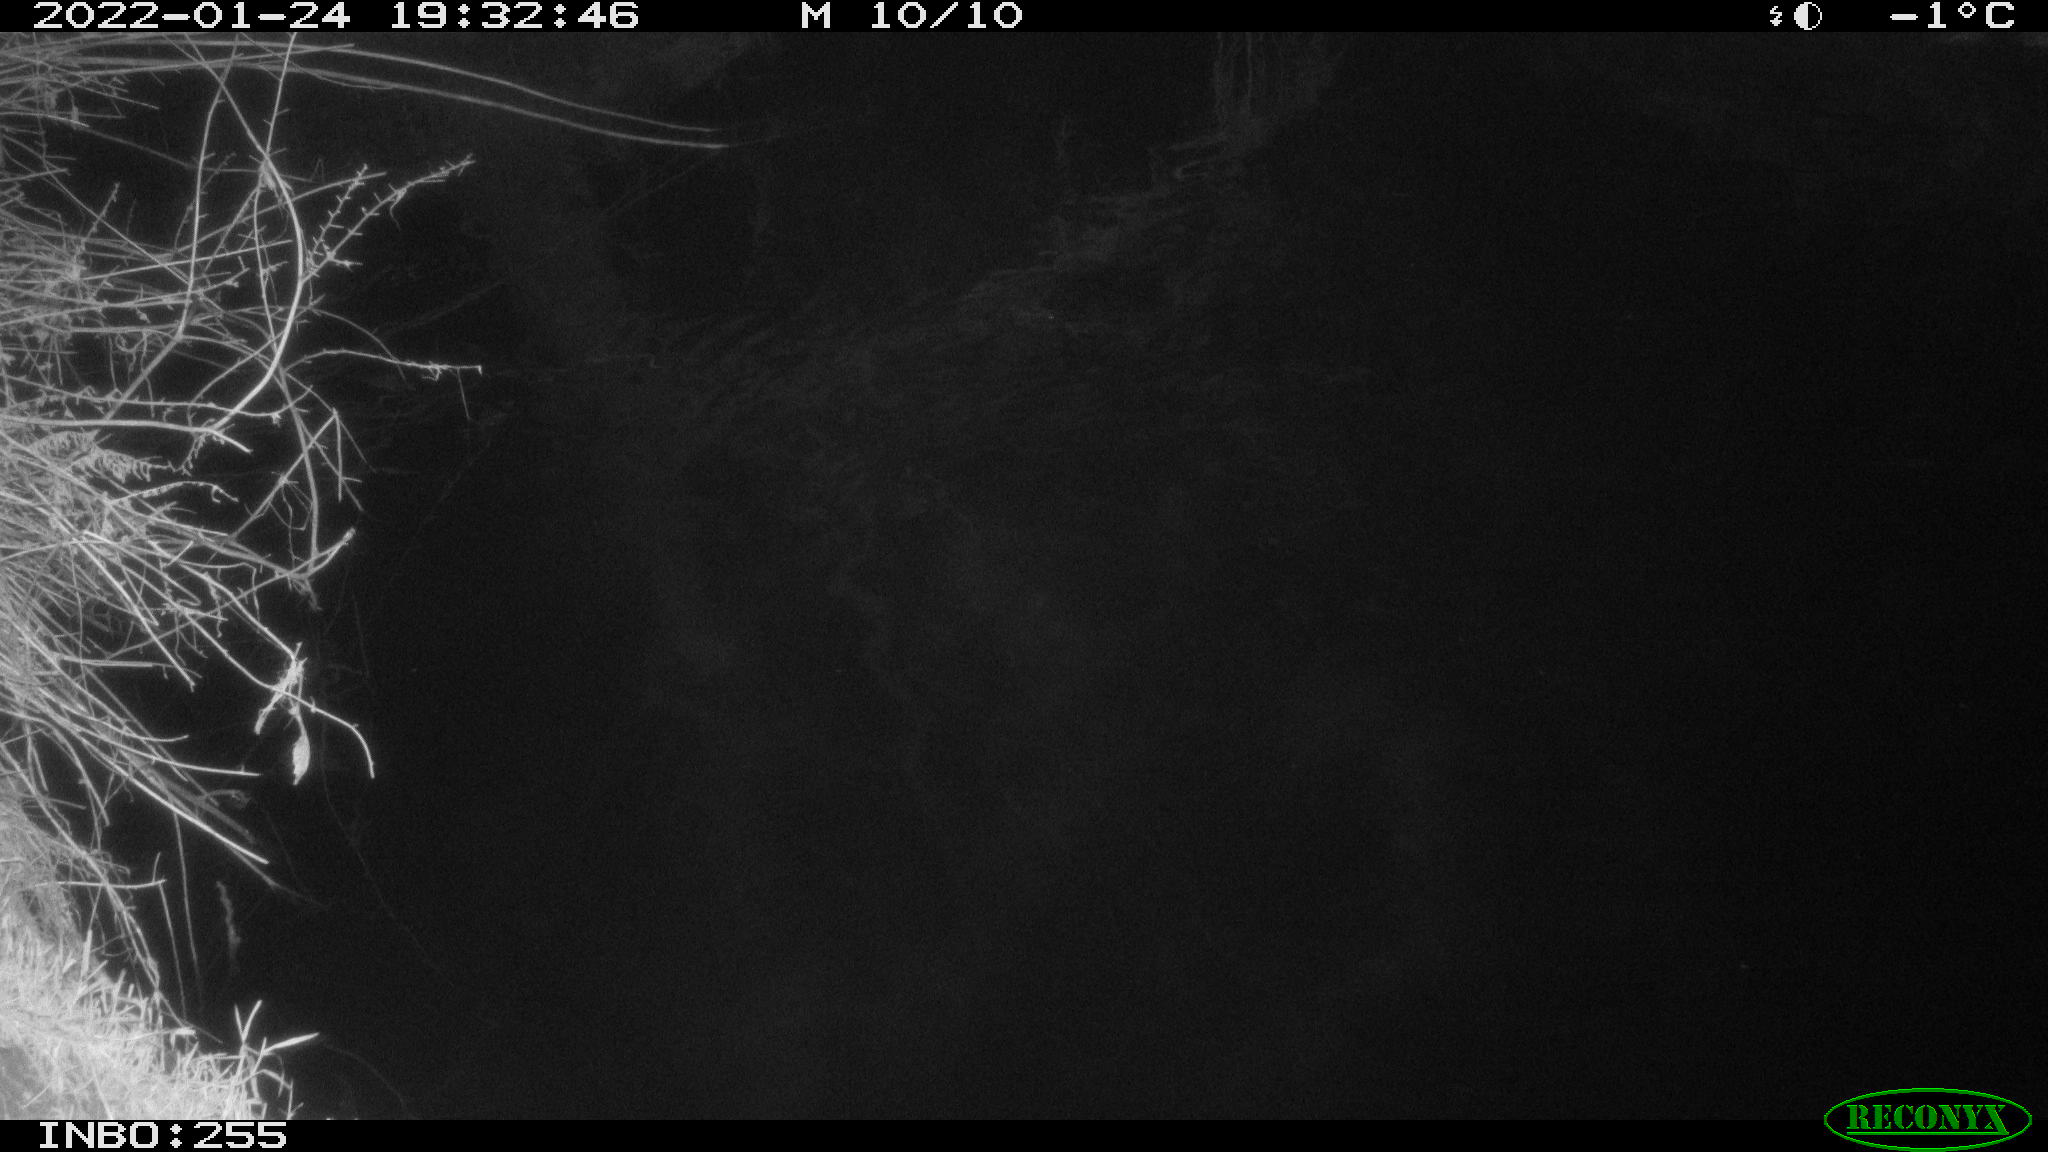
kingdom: Animalia
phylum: Chordata
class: Aves
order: Anseriformes
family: Anatidae
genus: Anas
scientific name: Anas
